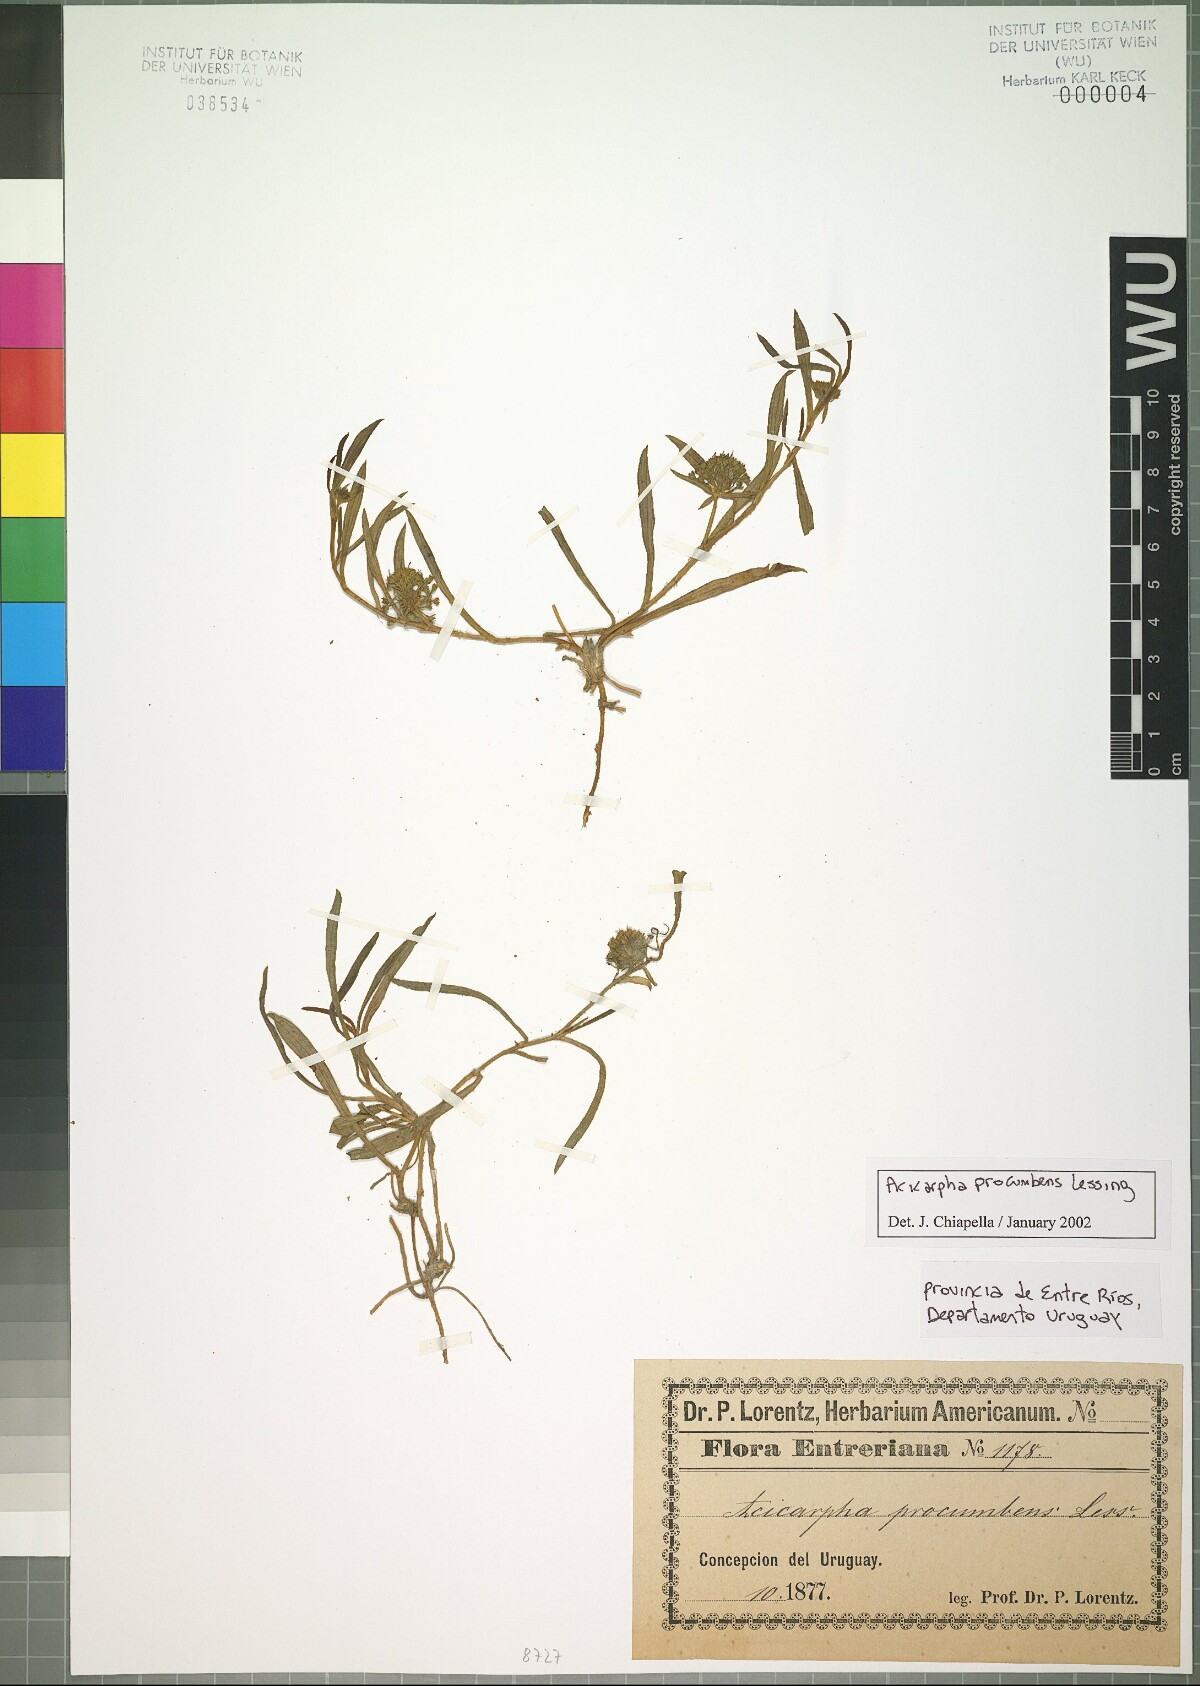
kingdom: Plantae
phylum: Tracheophyta
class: Magnoliopsida
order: Asterales
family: Calyceraceae
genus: Acicarpha
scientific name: Acicarpha procumbens
